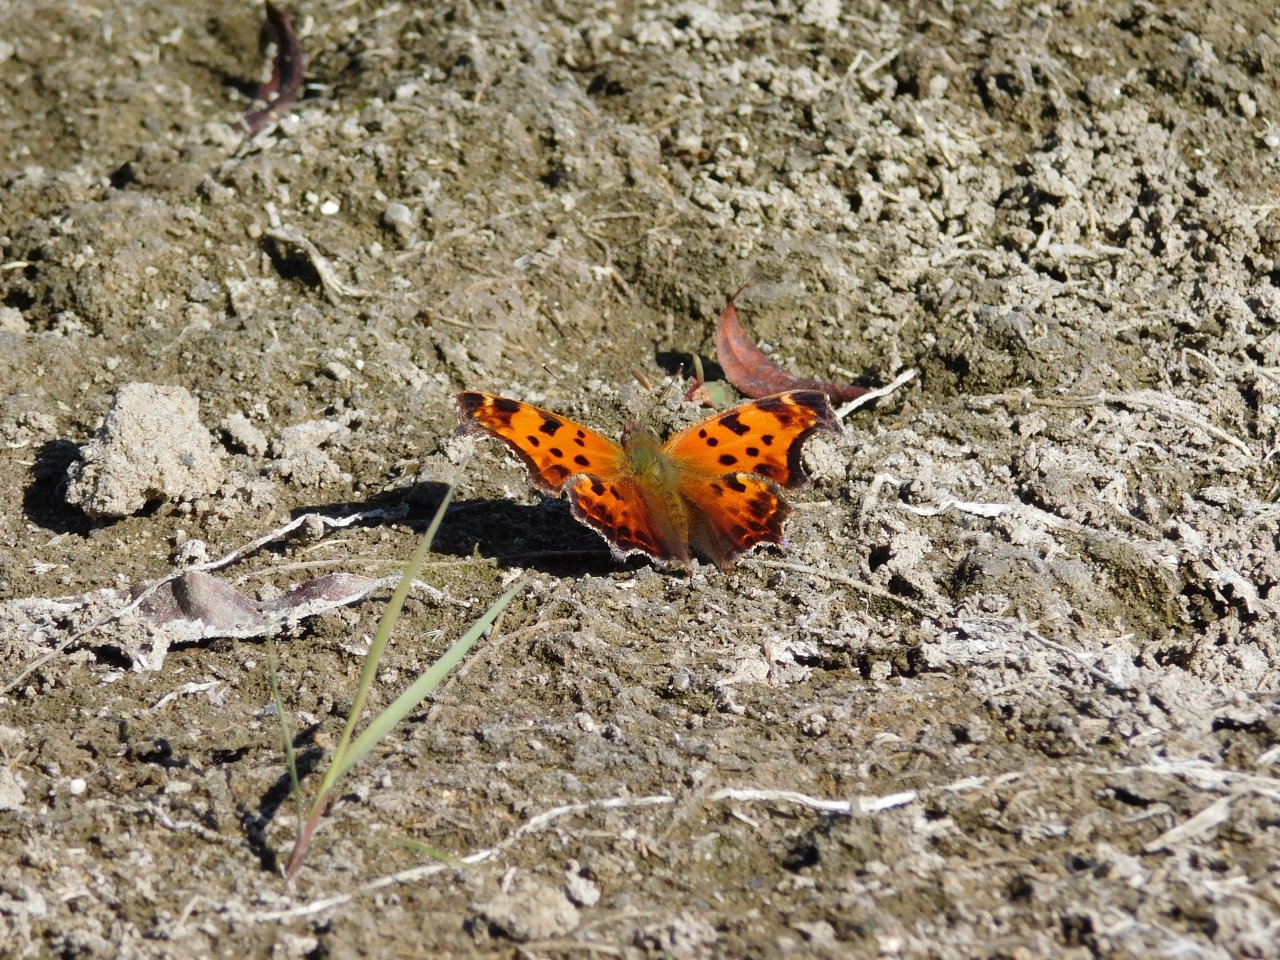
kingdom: Animalia
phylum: Arthropoda
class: Insecta
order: Lepidoptera
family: Nymphalidae
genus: Polygonia
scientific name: Polygonia comma
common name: Eastern Comma
